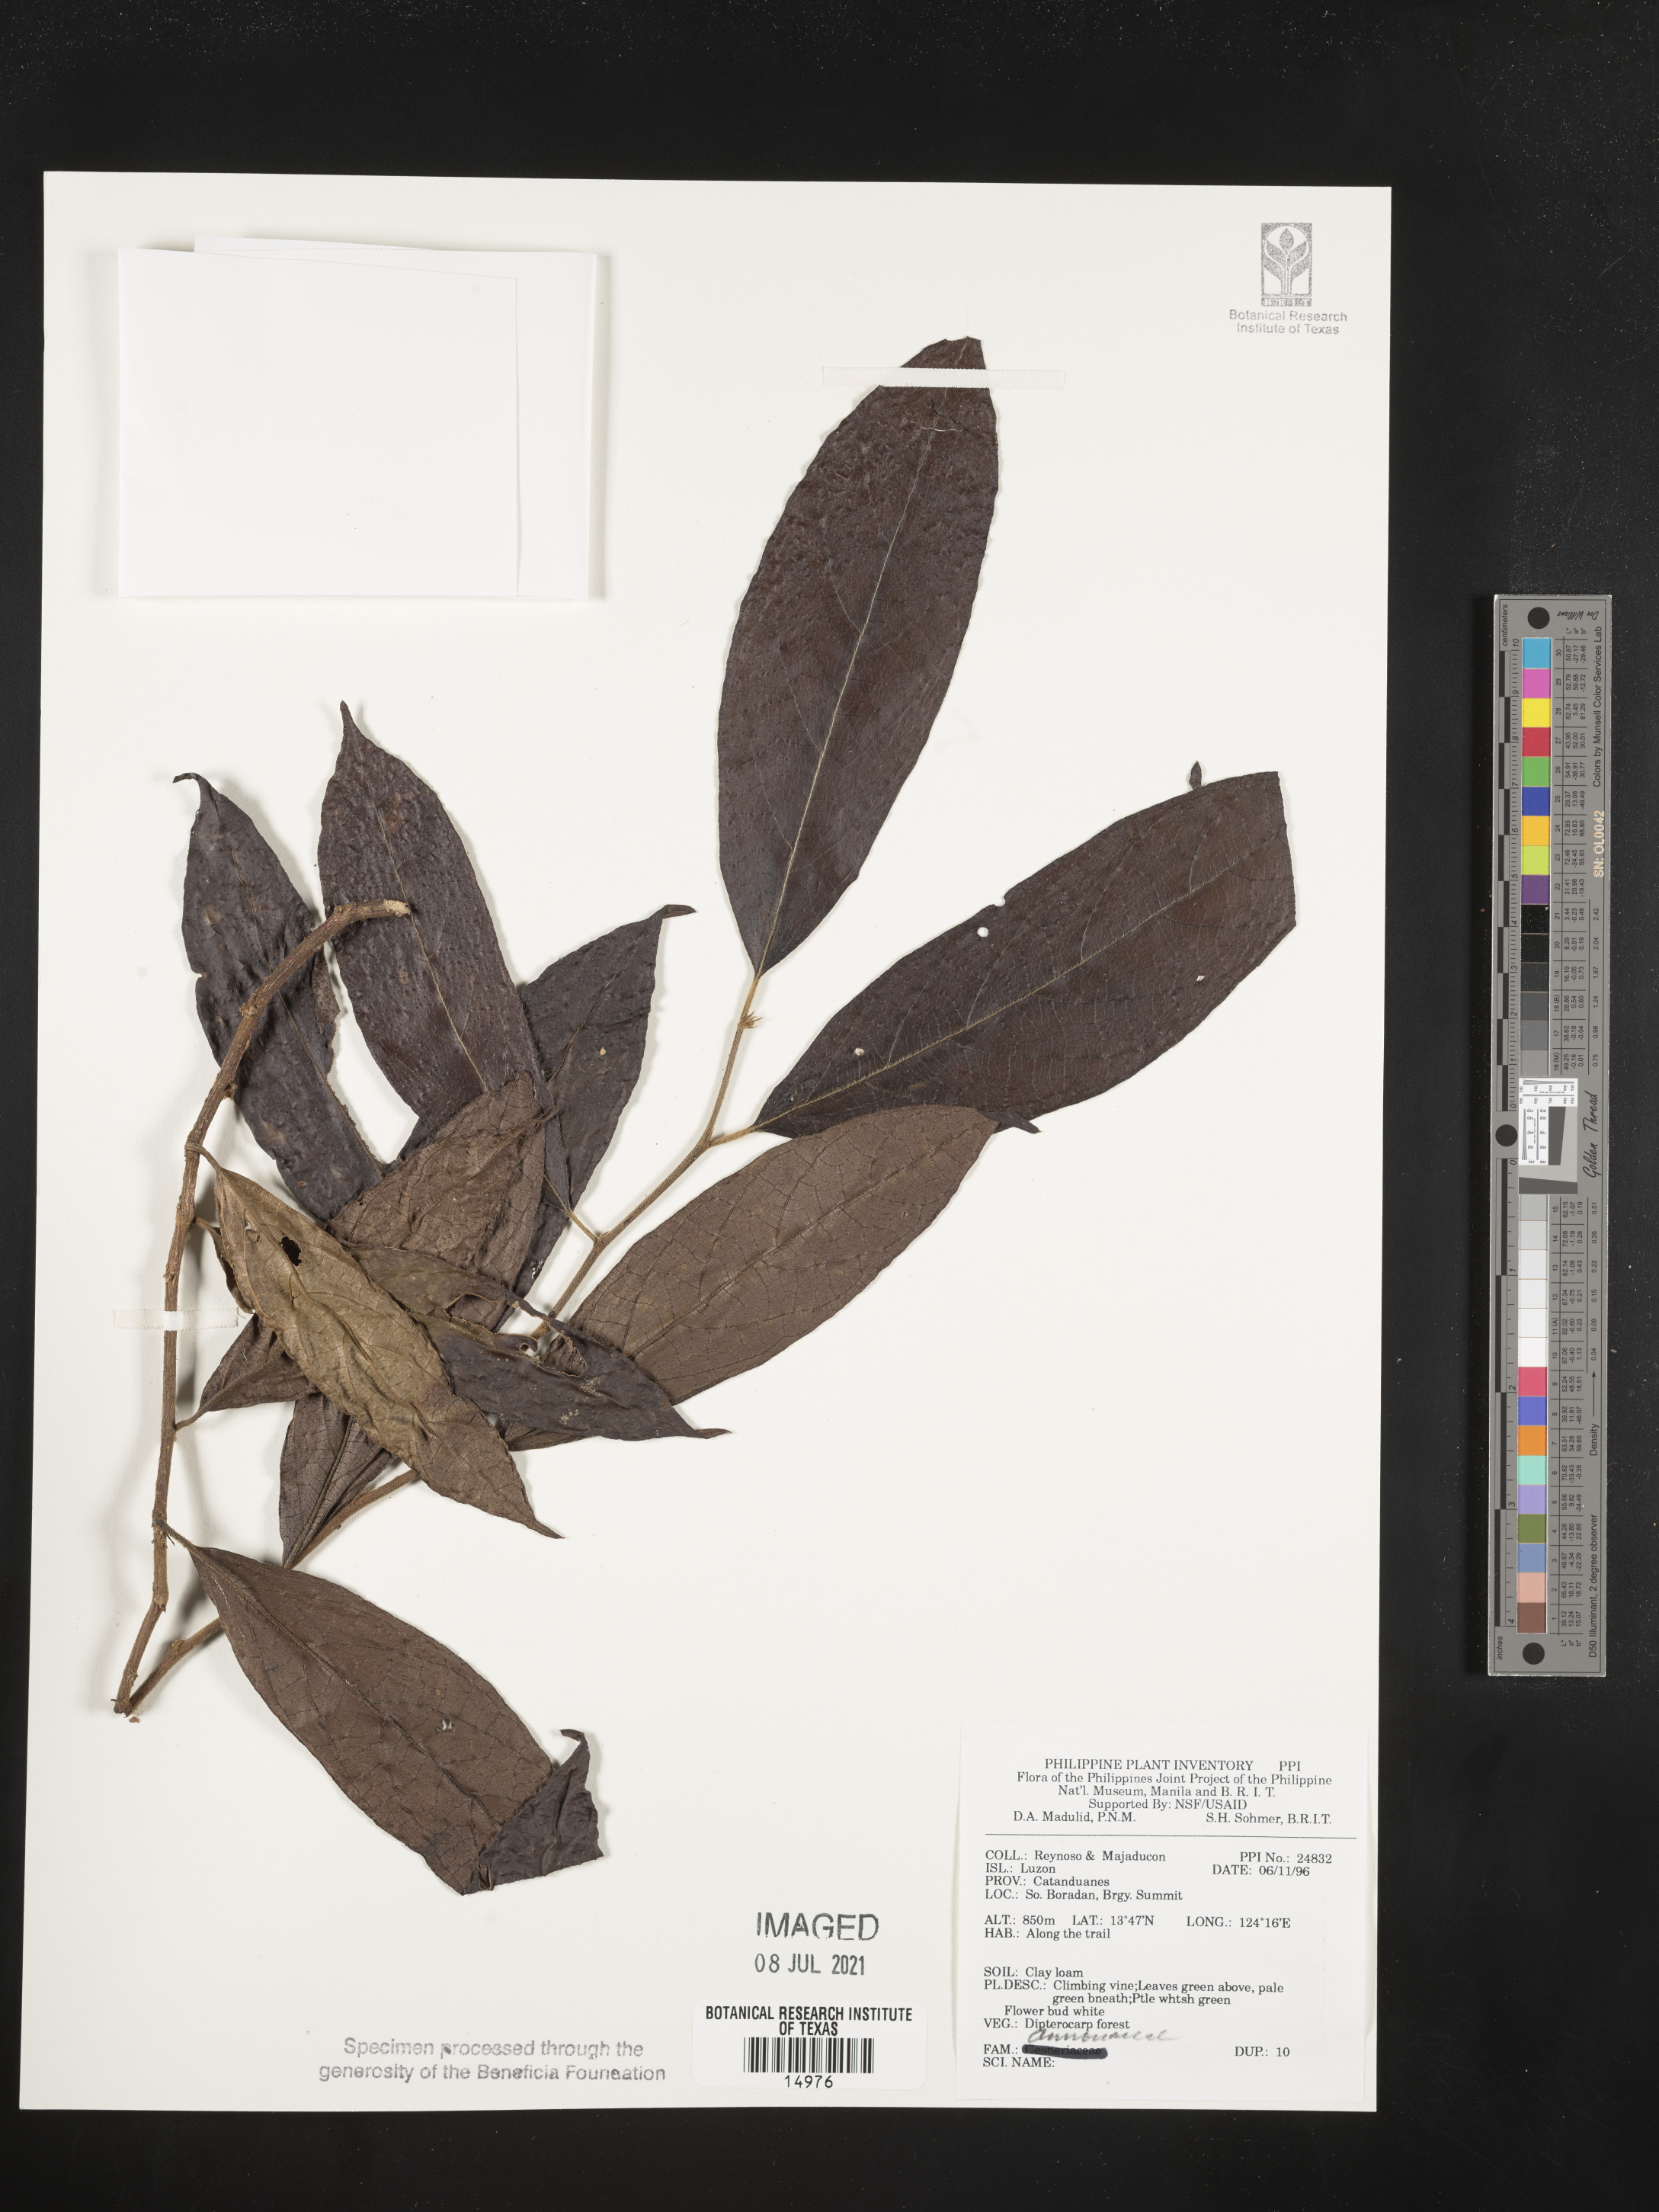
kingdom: Plantae
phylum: Tracheophyta
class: Magnoliopsida
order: Magnoliales
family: Annonaceae
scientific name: Annonaceae
